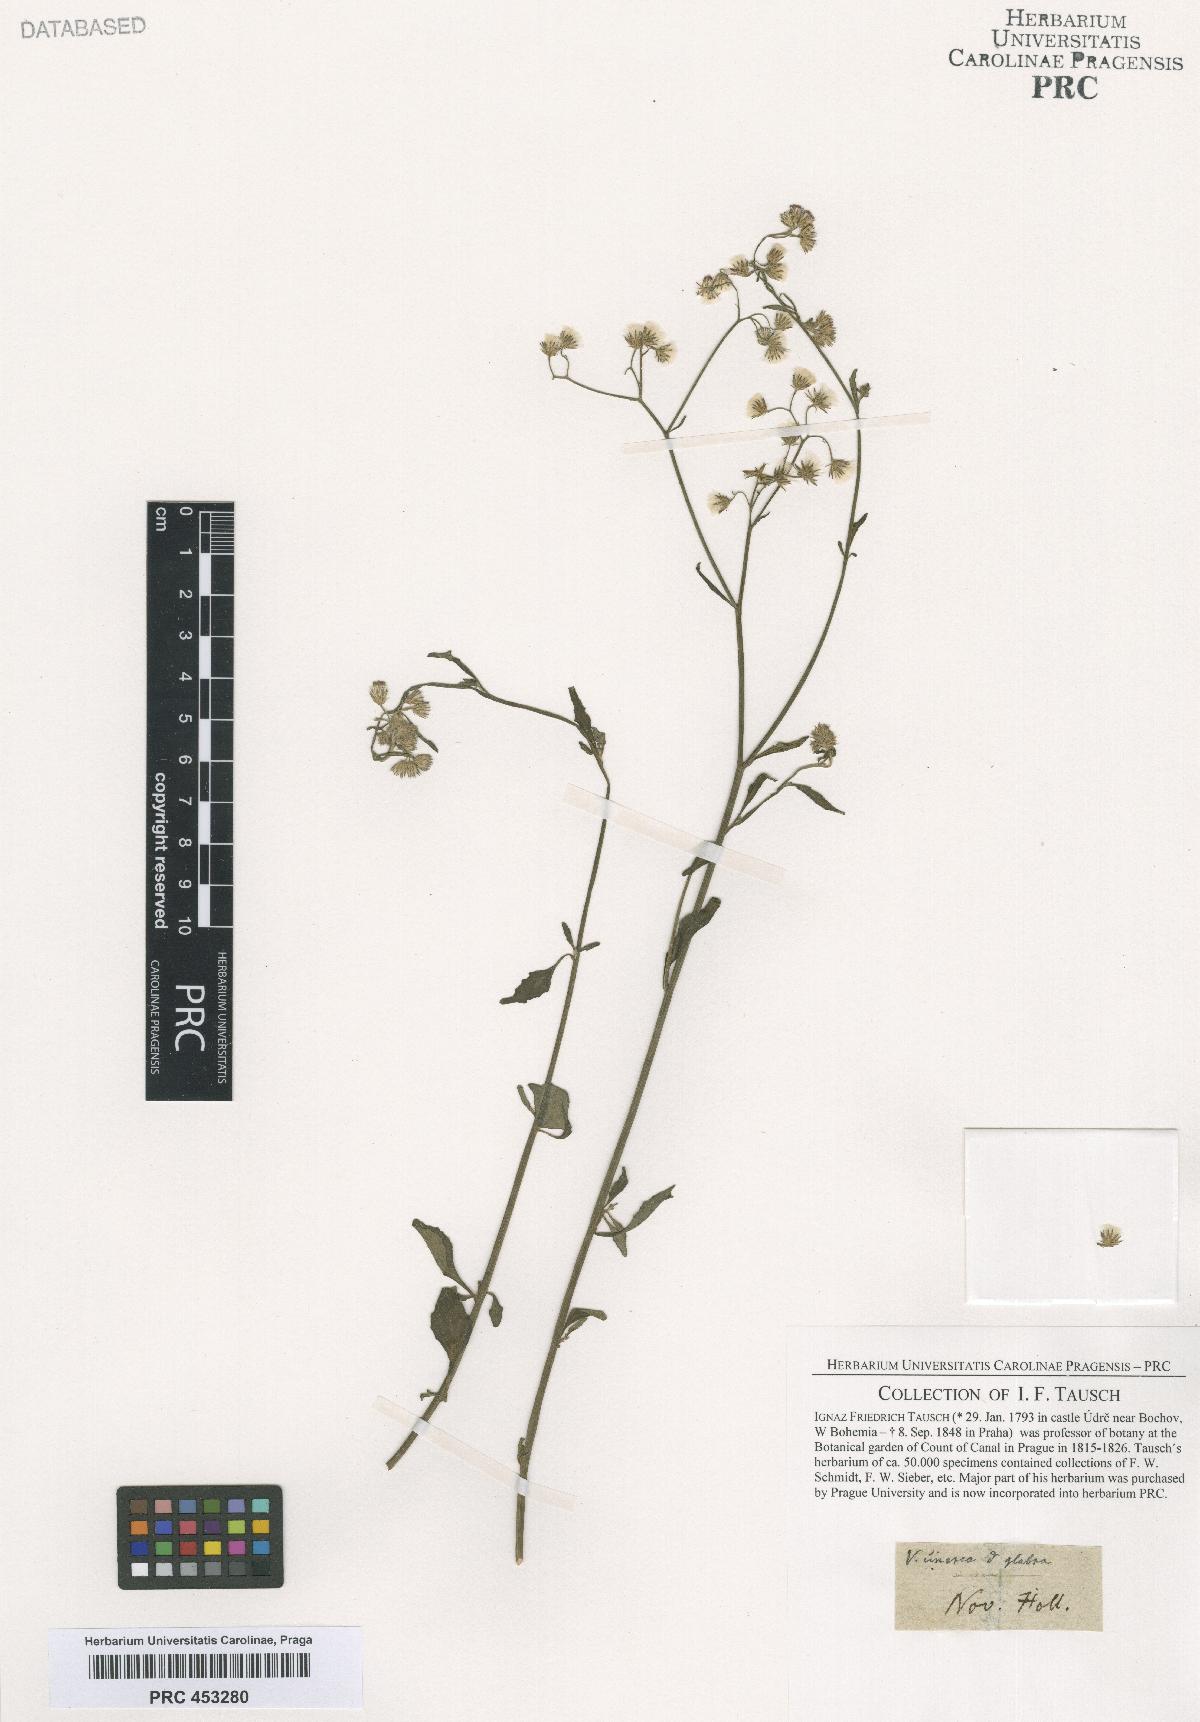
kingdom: Plantae
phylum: Tracheophyta
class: Magnoliopsida
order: Asterales
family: Asteraceae
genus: Cyanthillium
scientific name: Cyanthillium cinereum
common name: Little ironweed
